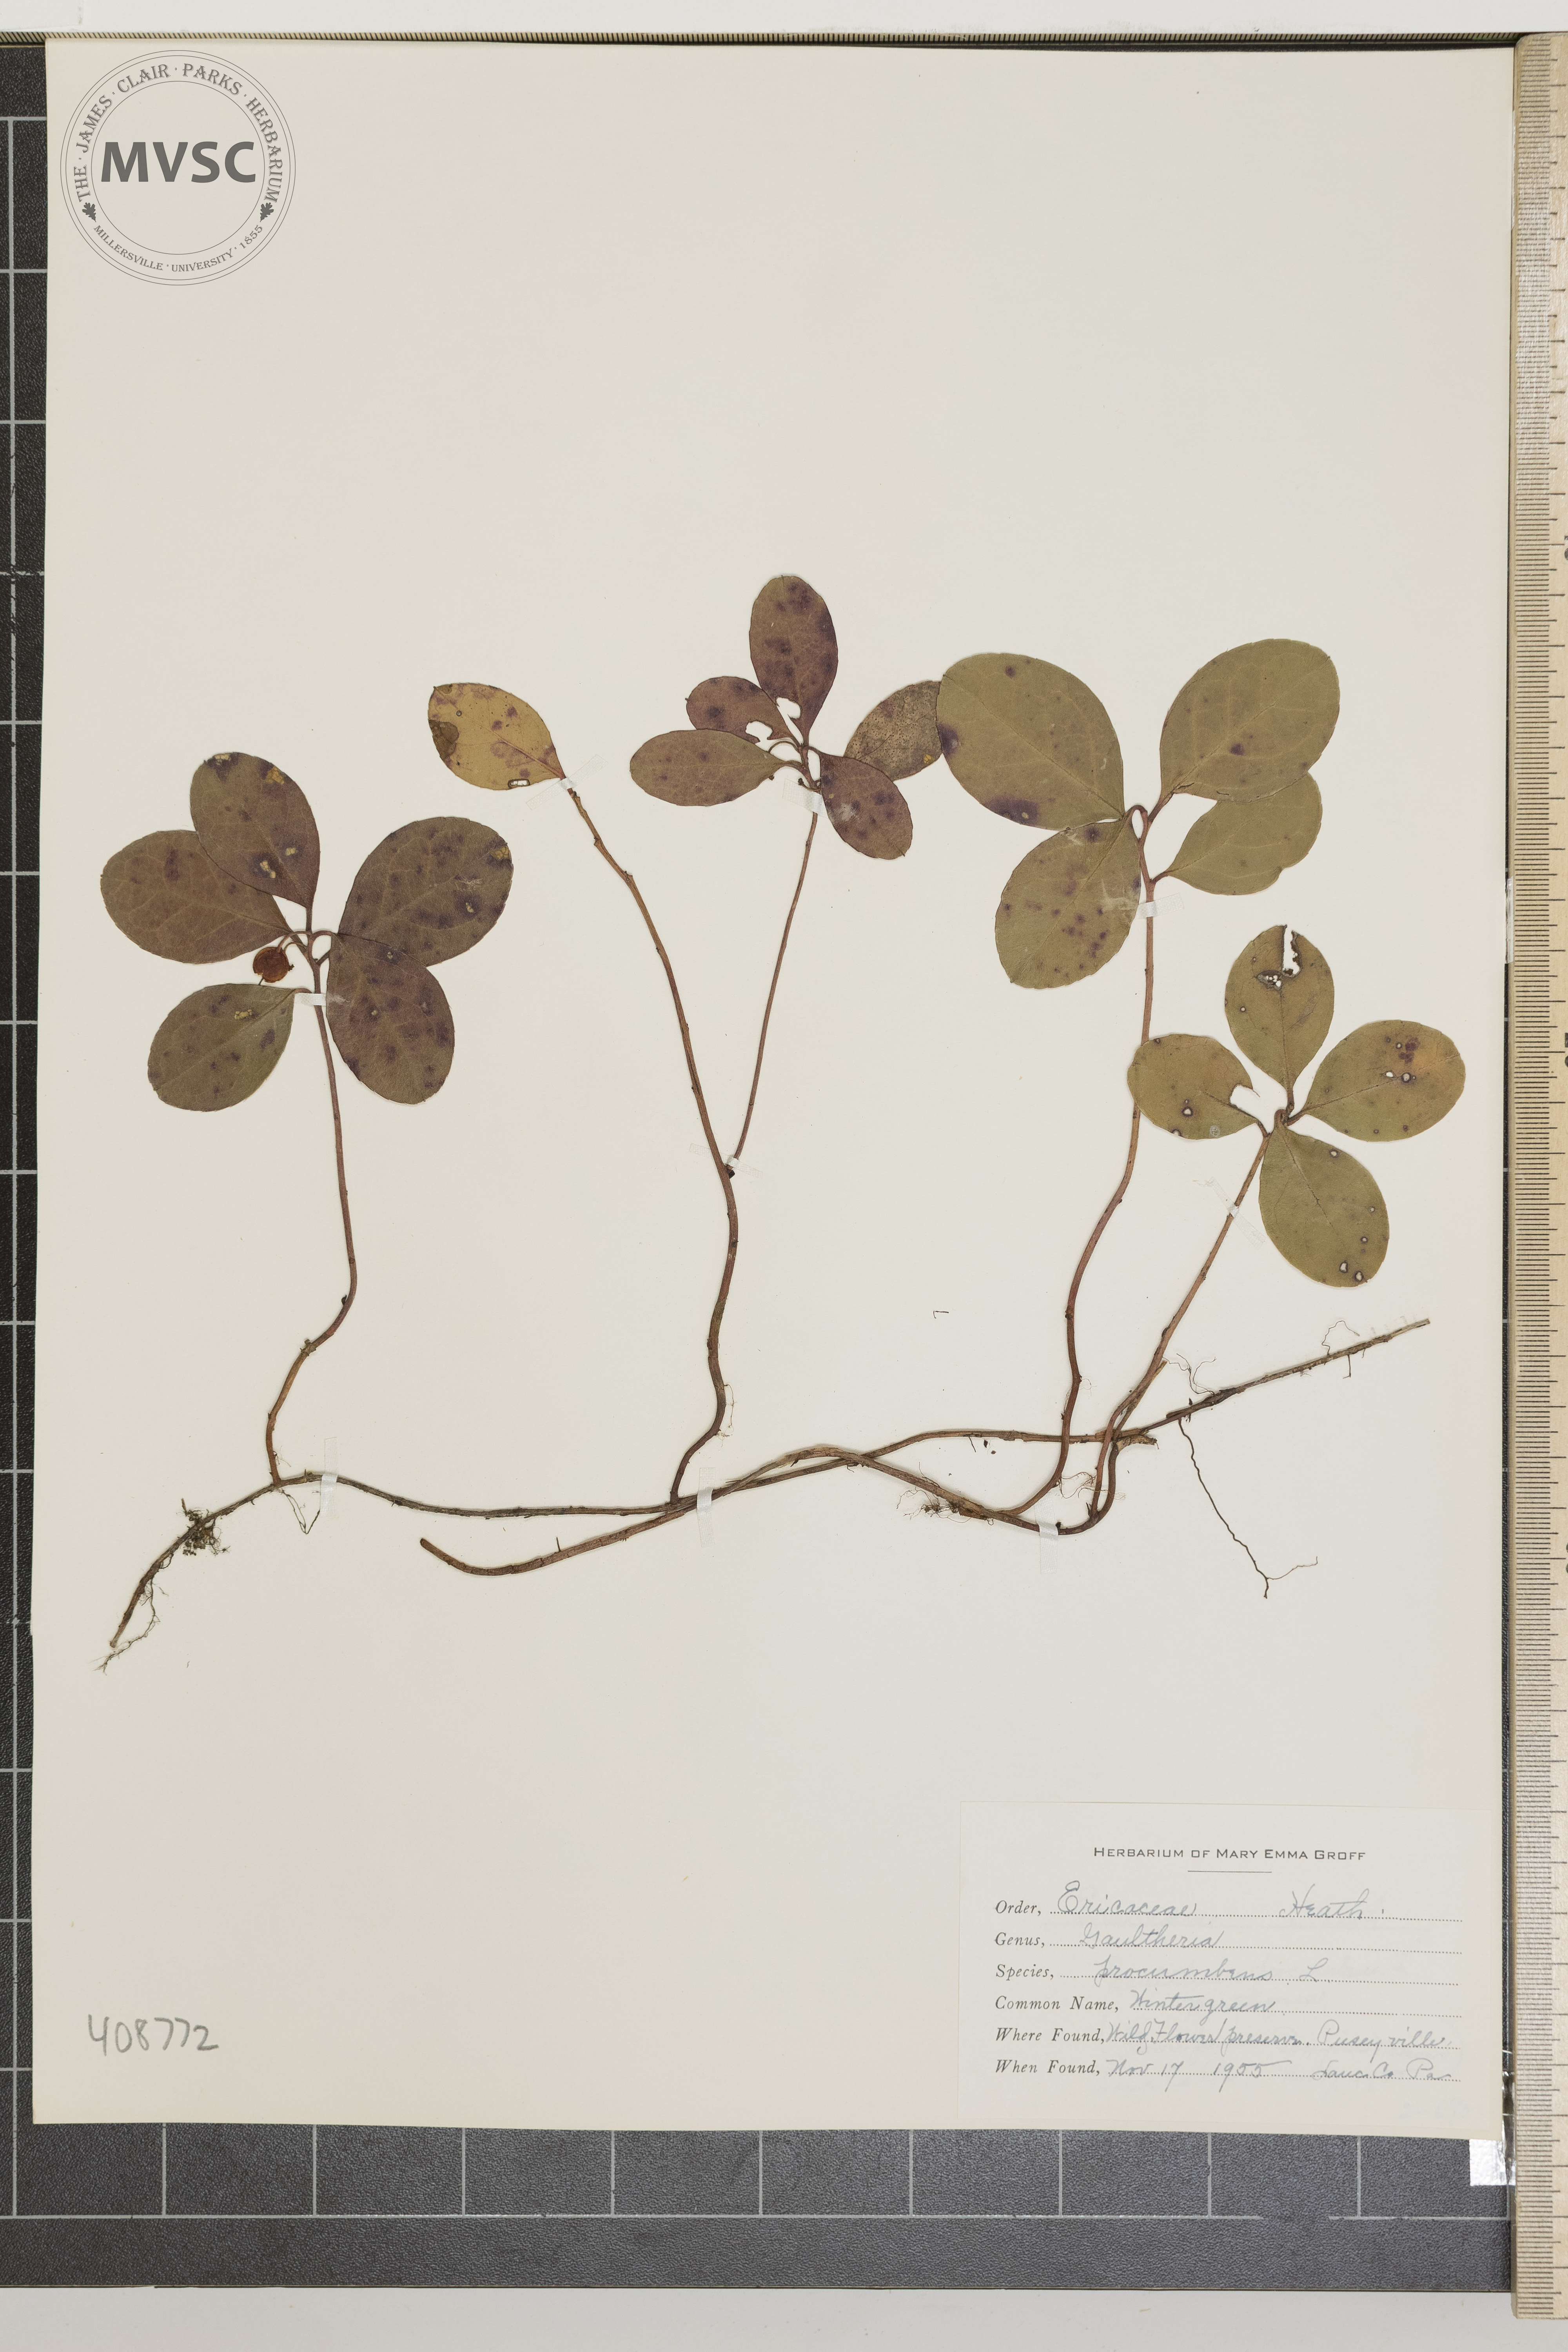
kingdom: Plantae
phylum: Tracheophyta
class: Magnoliopsida
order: Ericales
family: Ericaceae
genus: Gaultheria
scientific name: Gaultheria procumbens
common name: Wintergreen
